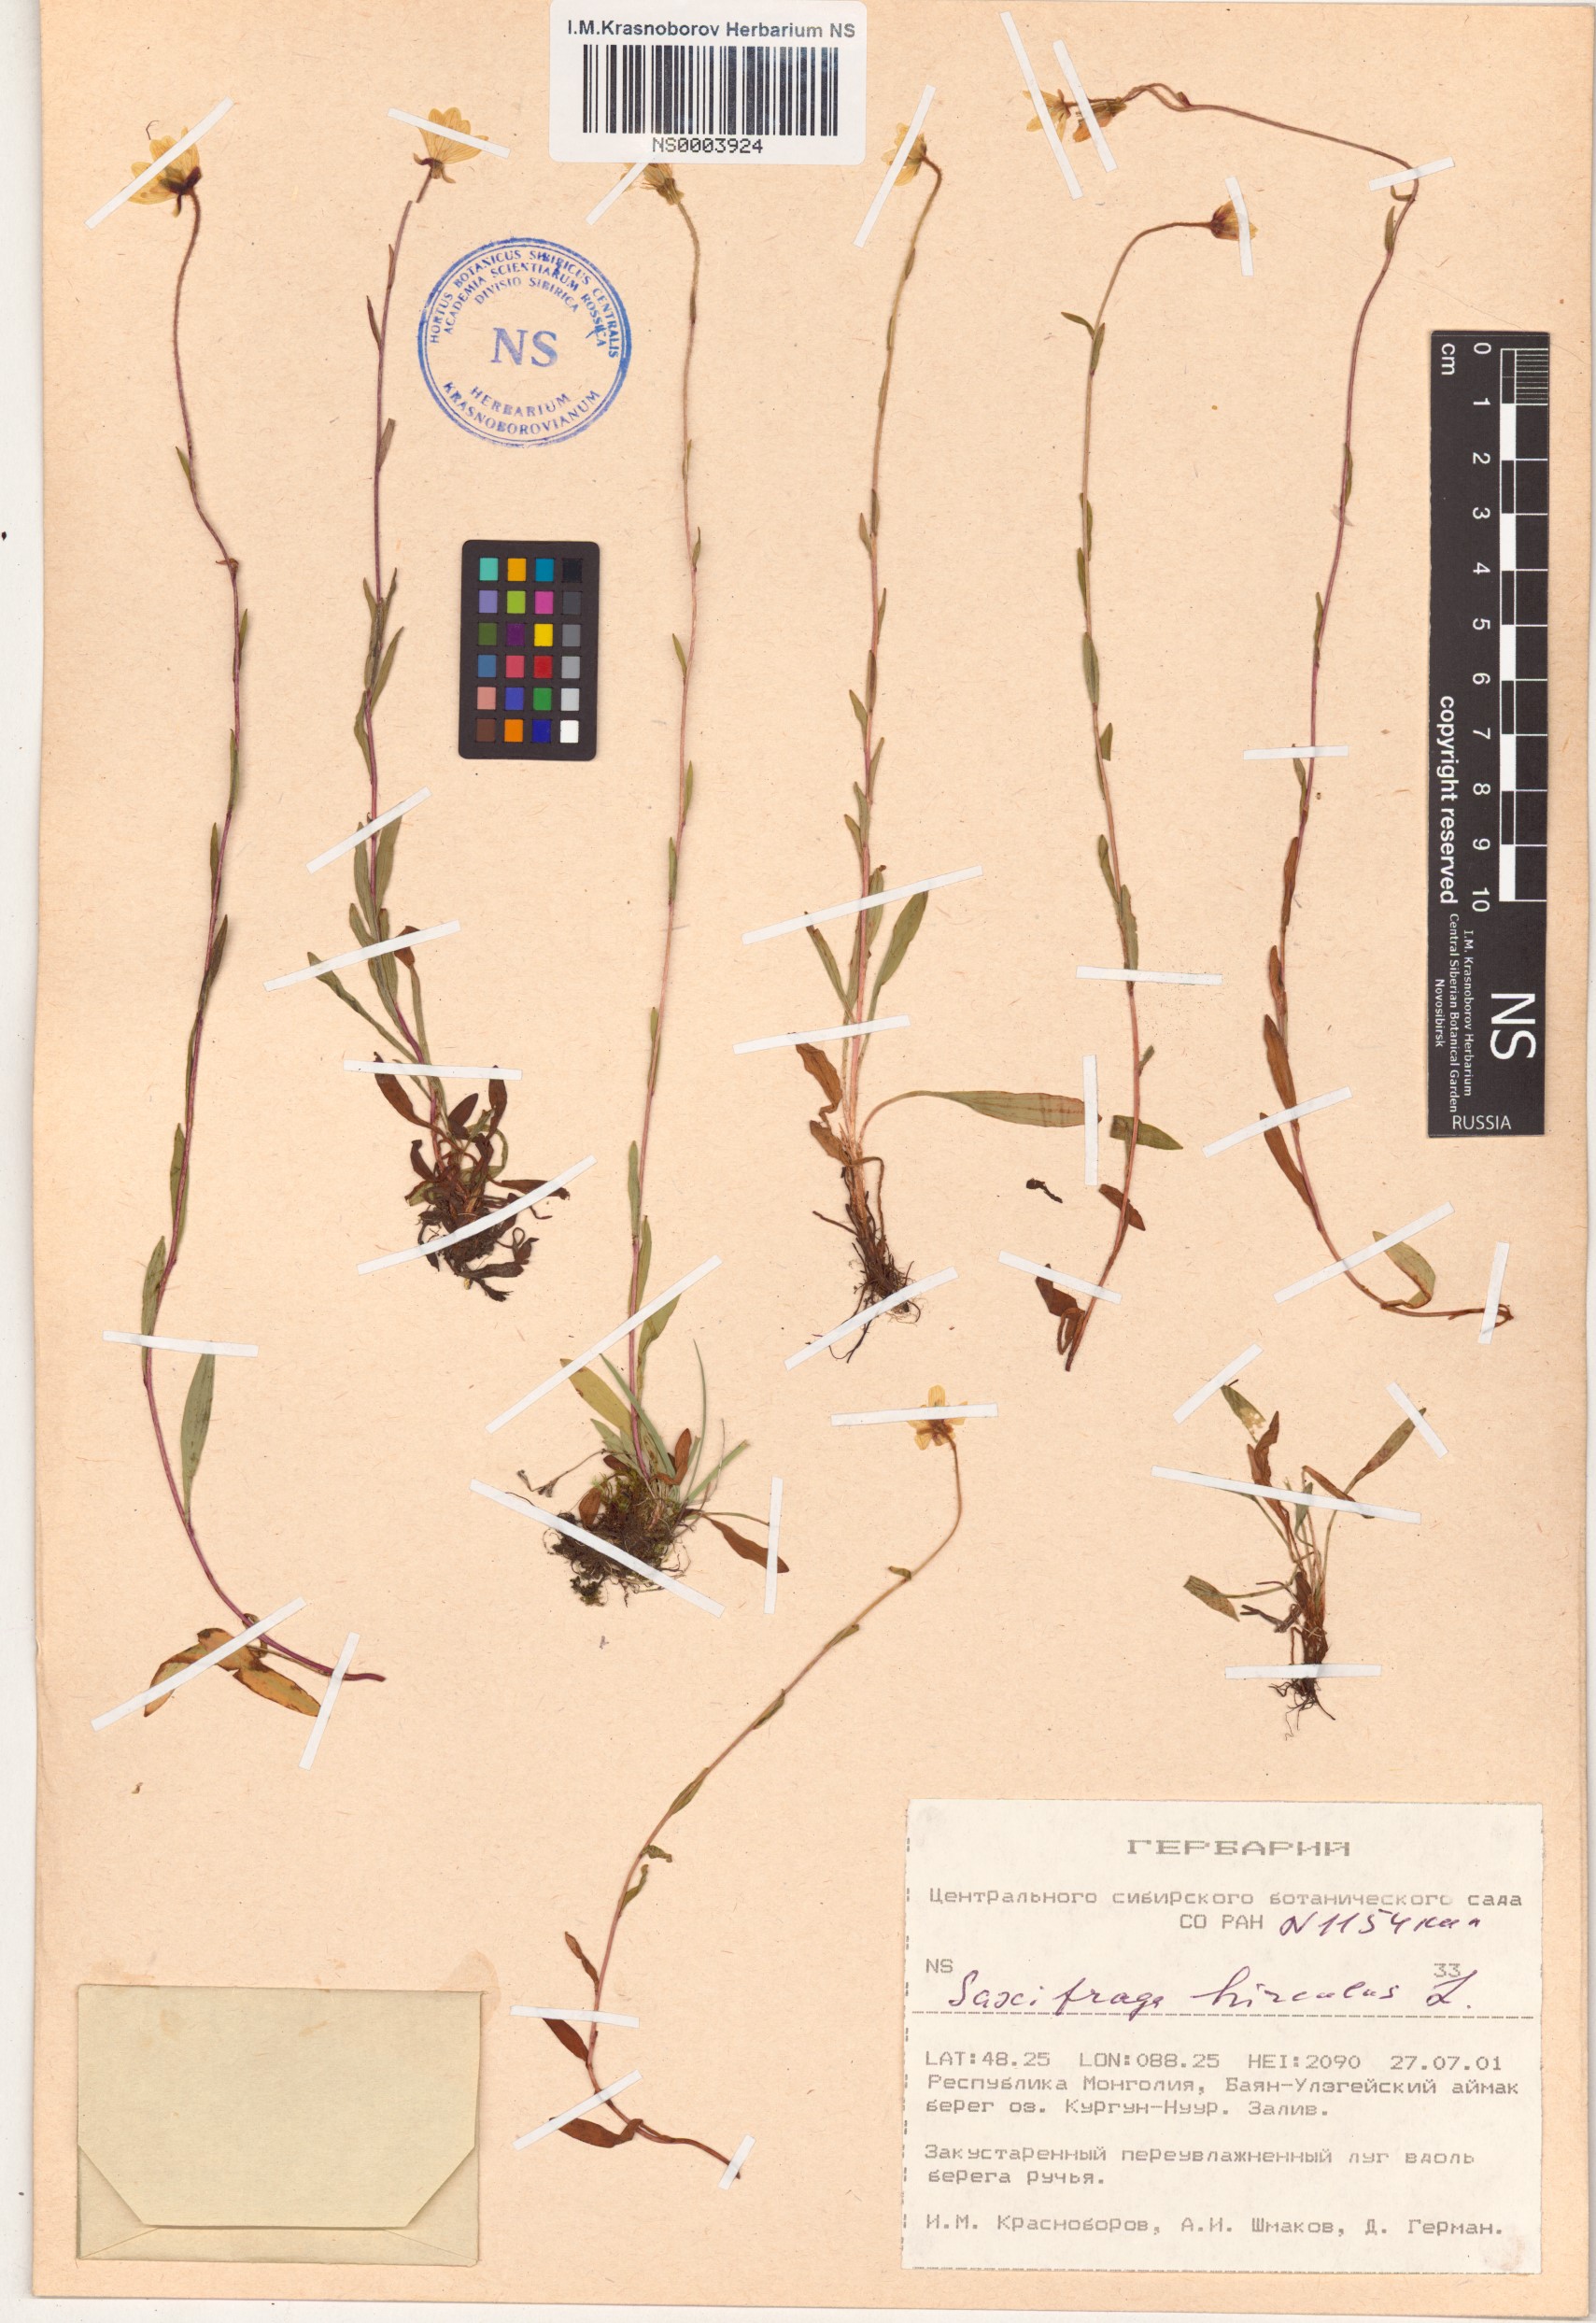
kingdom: Plantae
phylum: Tracheophyta
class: Magnoliopsida
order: Saxifragales
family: Saxifragaceae
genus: Saxifraga
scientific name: Saxifraga hirculus
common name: Yellow marsh saxifrage
